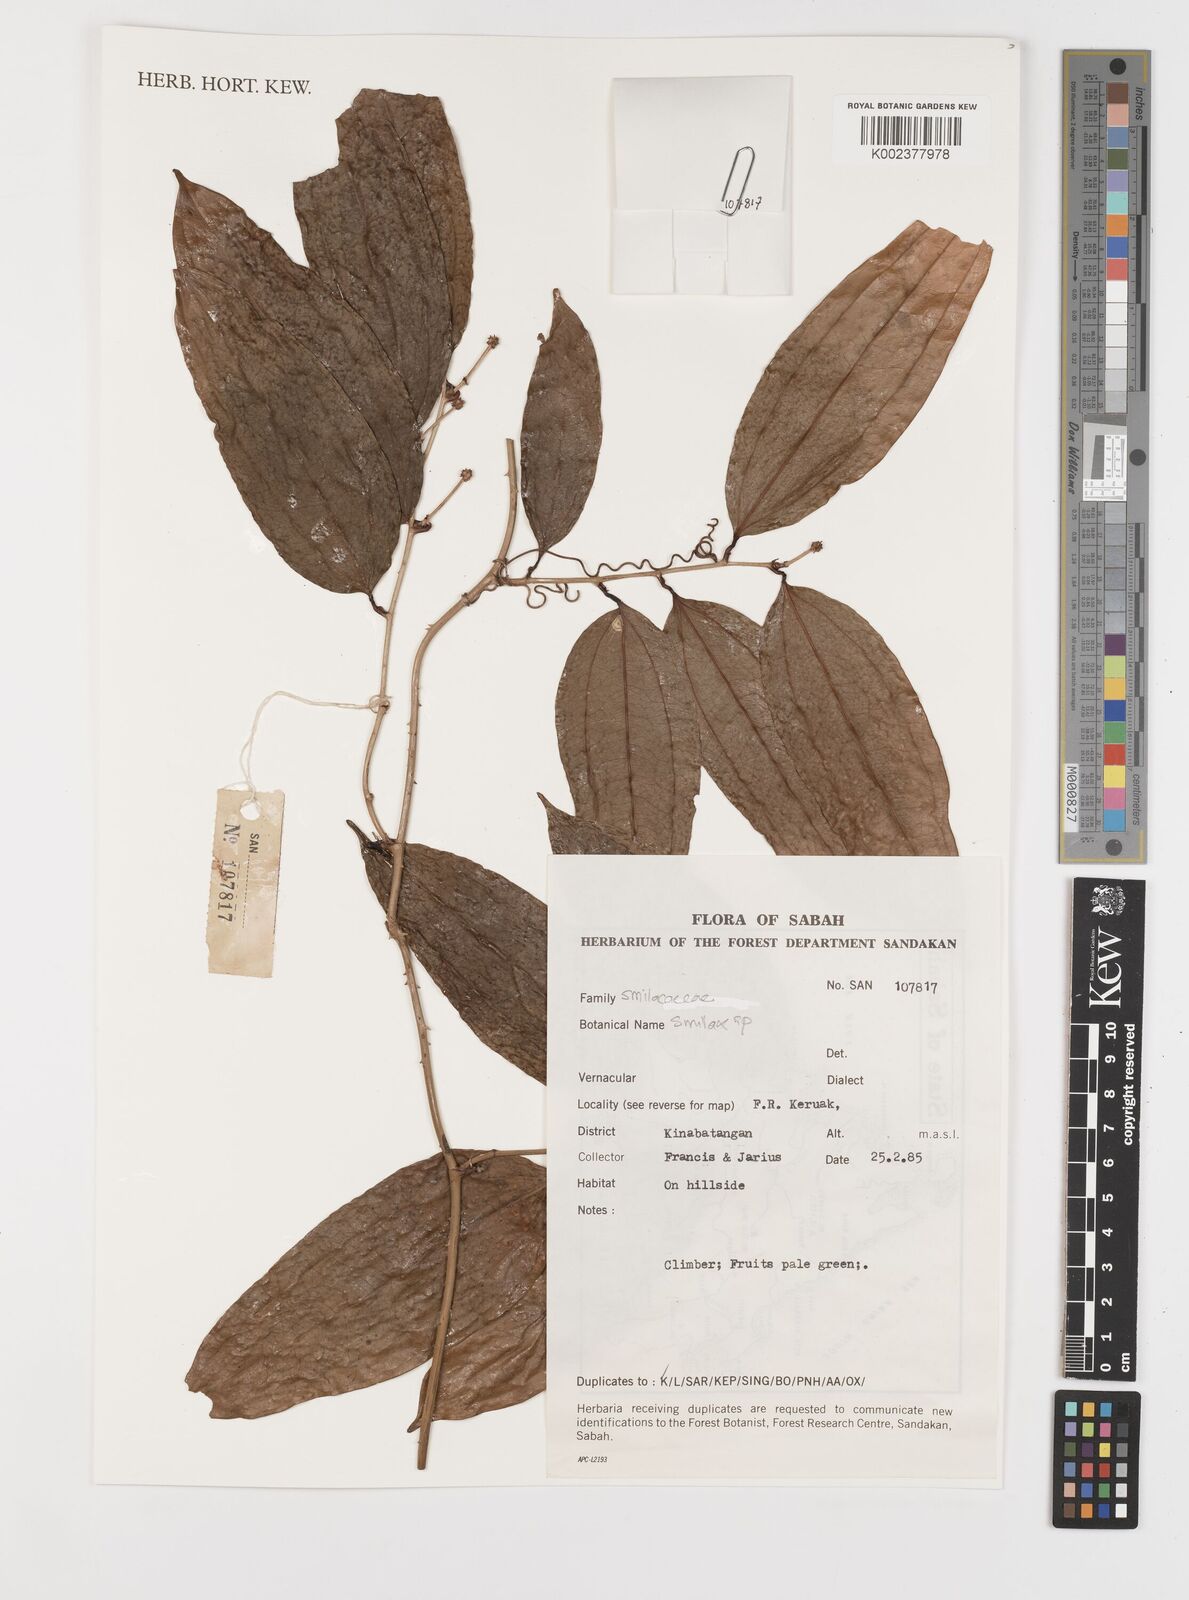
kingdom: Plantae
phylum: Tracheophyta
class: Liliopsida
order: Liliales
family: Smilacaceae
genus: Smilax
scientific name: Smilax
